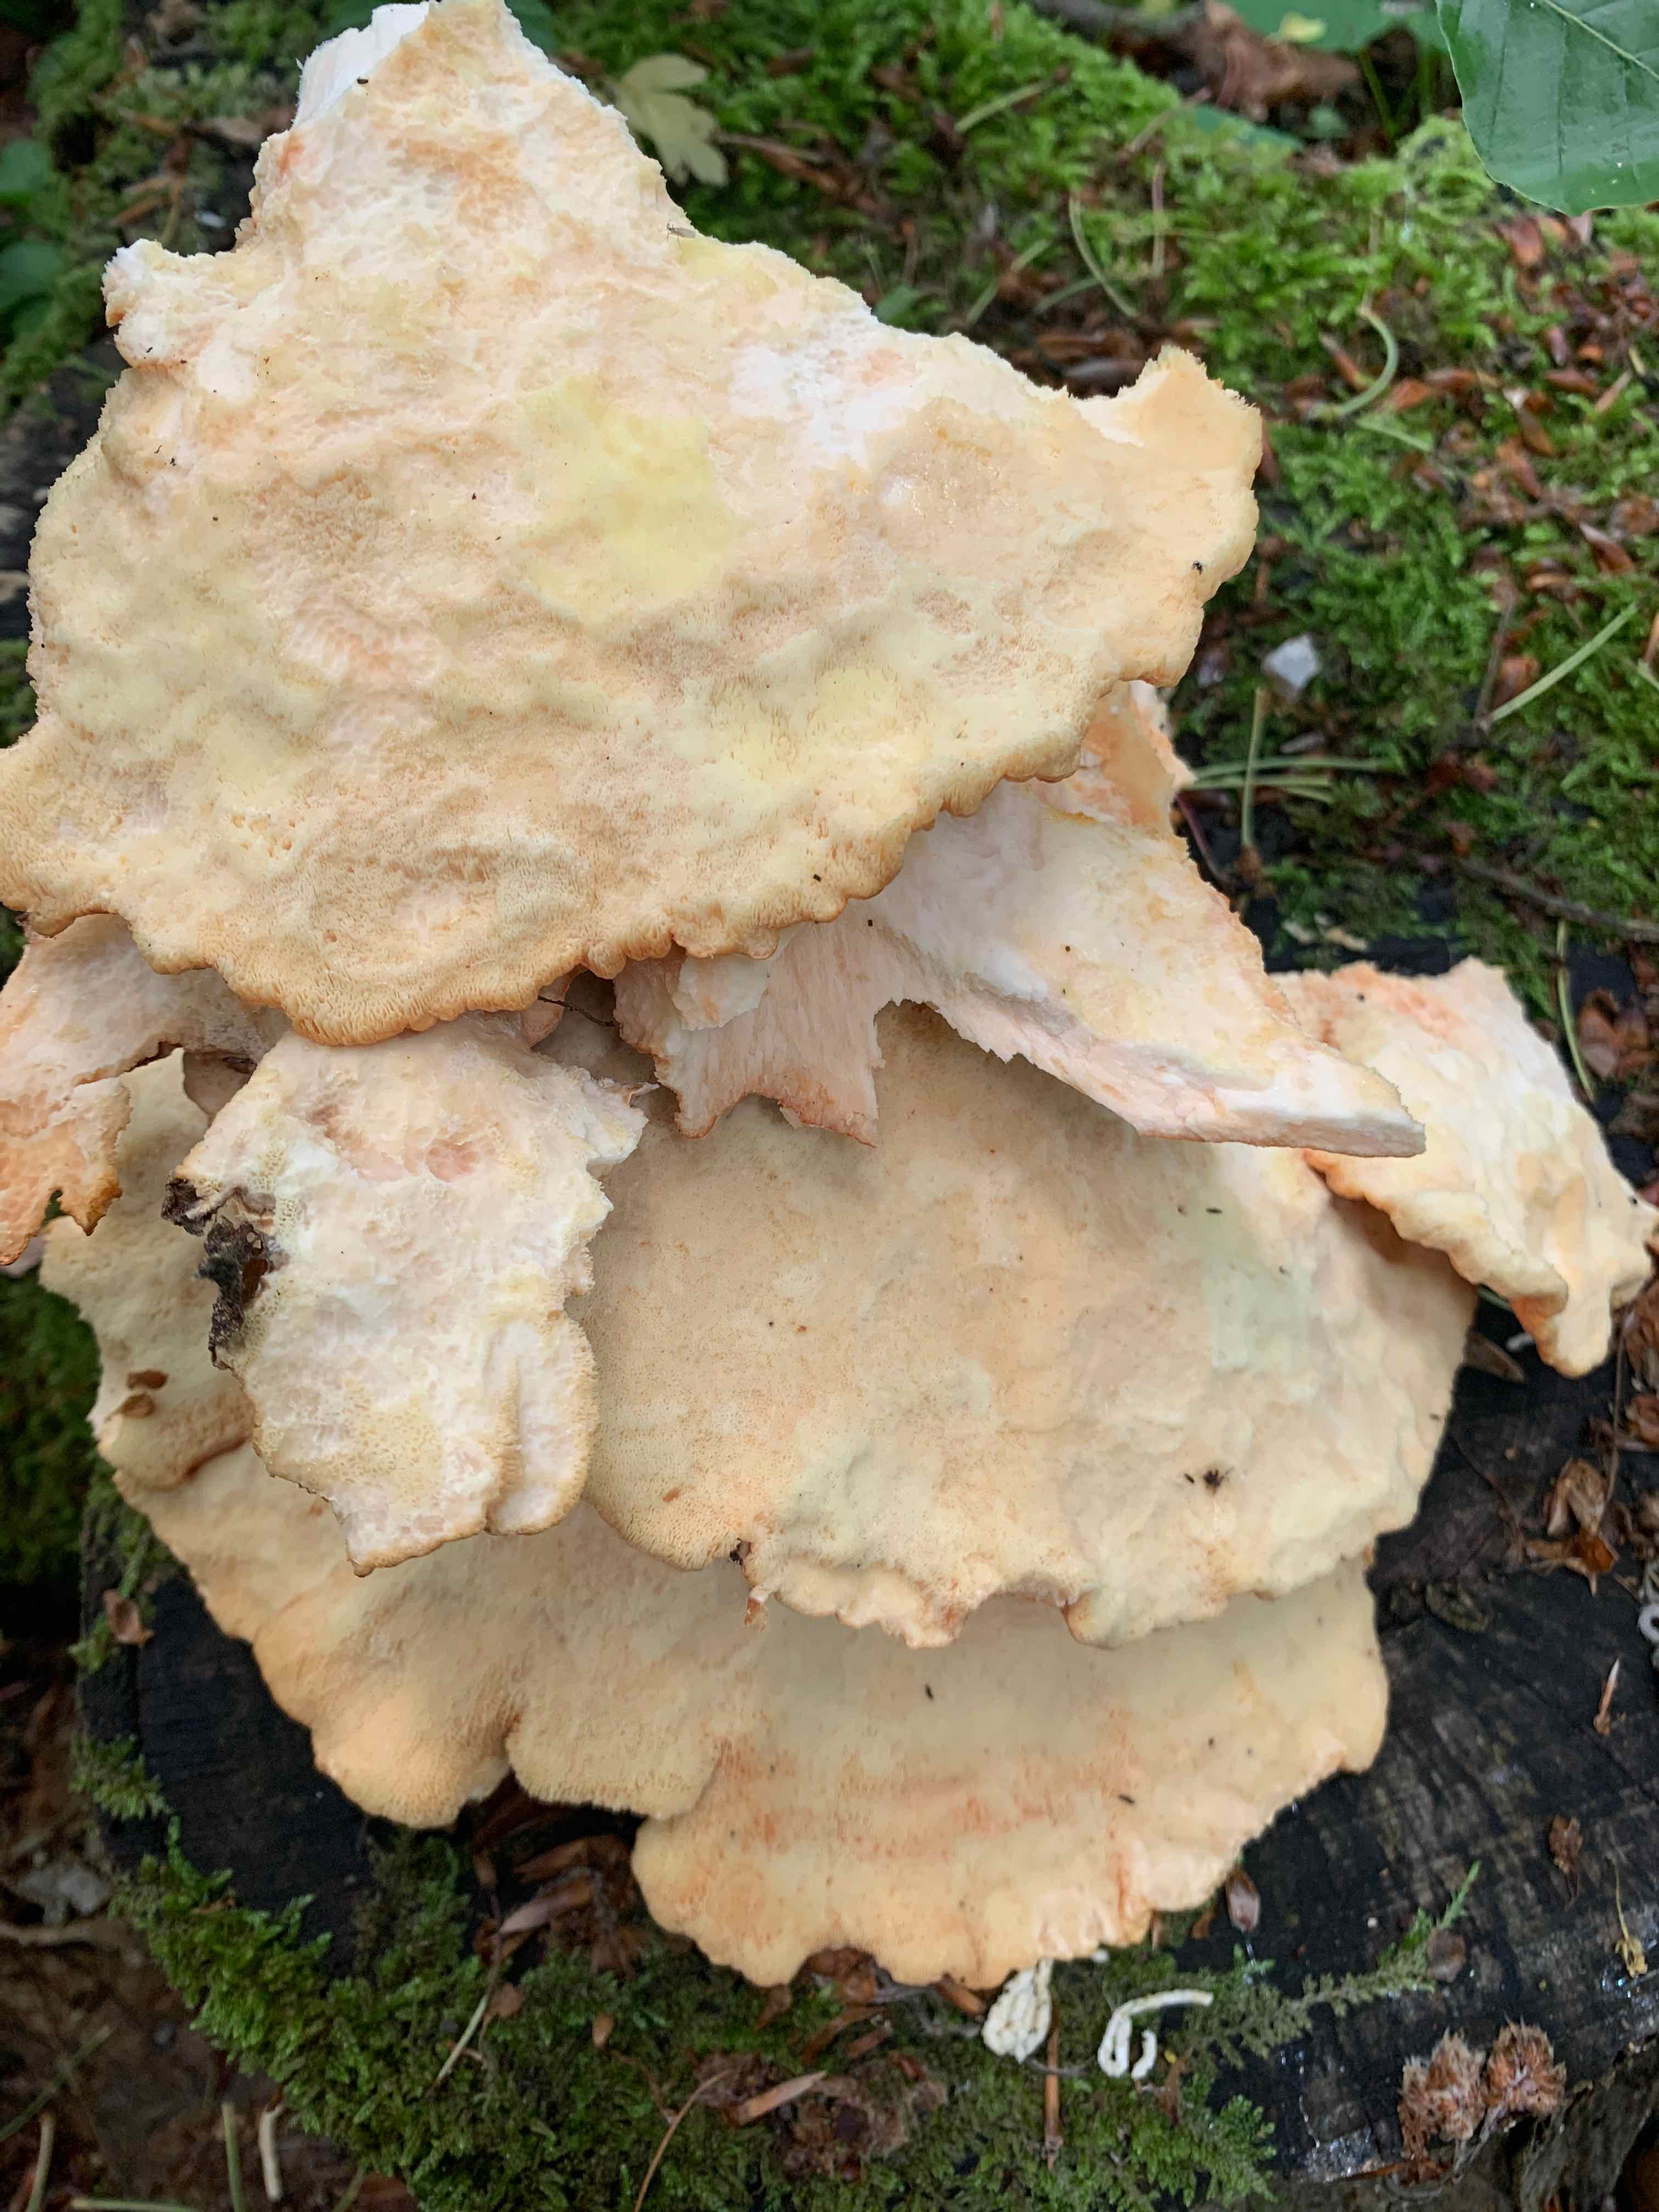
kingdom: Fungi
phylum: Basidiomycota
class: Agaricomycetes
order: Polyporales
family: Laetiporaceae
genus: Laetiporus
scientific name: Laetiporus sulphureus
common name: svovlporesvamp
